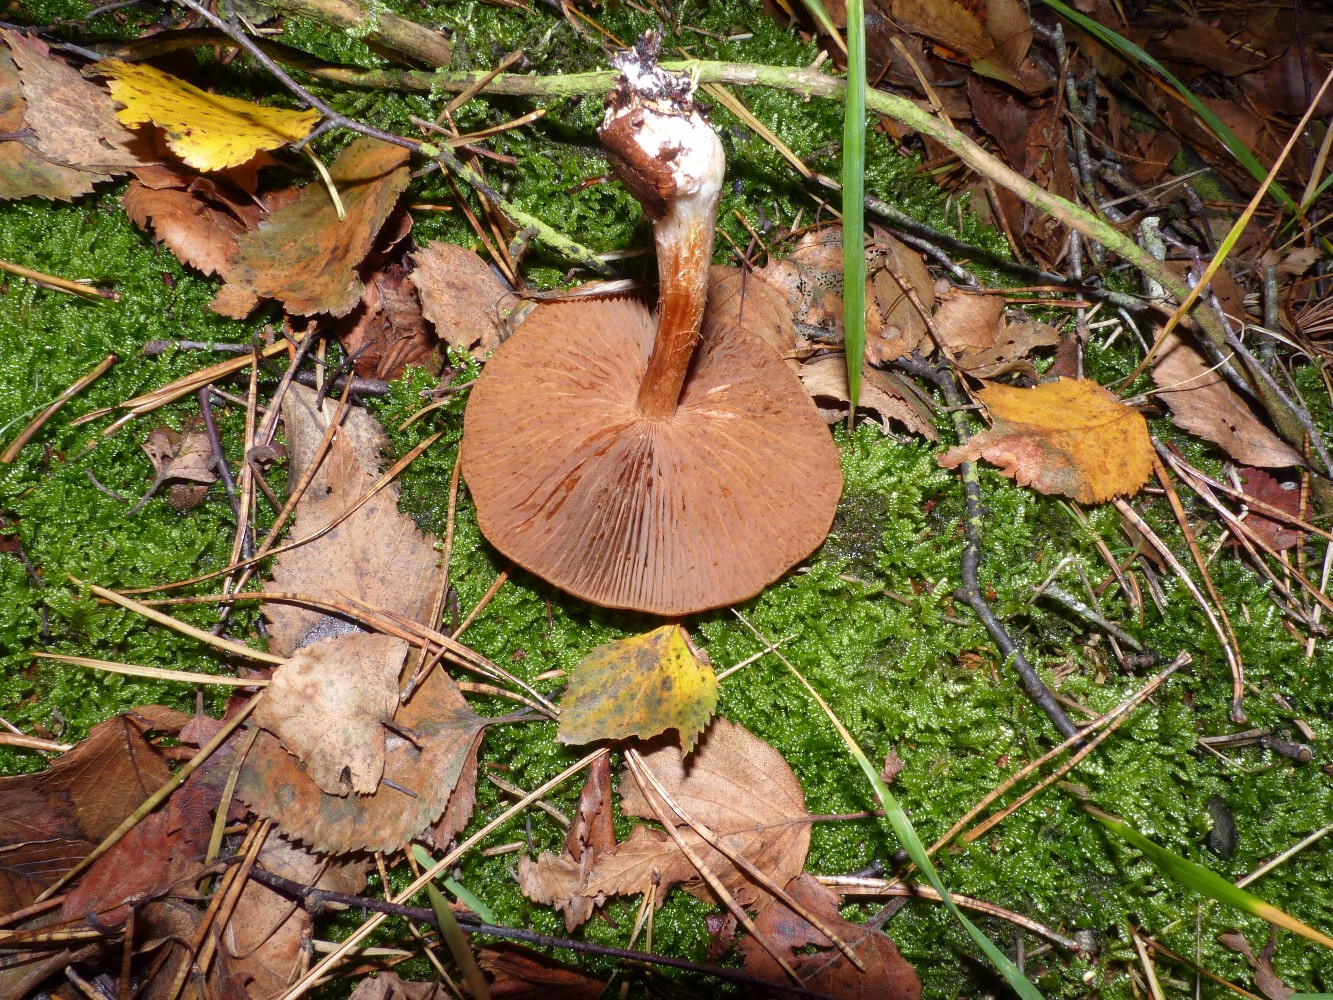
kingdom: Fungi
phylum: Basidiomycota
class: Agaricomycetes
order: Agaricales
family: Cortinariaceae
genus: Cortinarius
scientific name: Cortinarius
